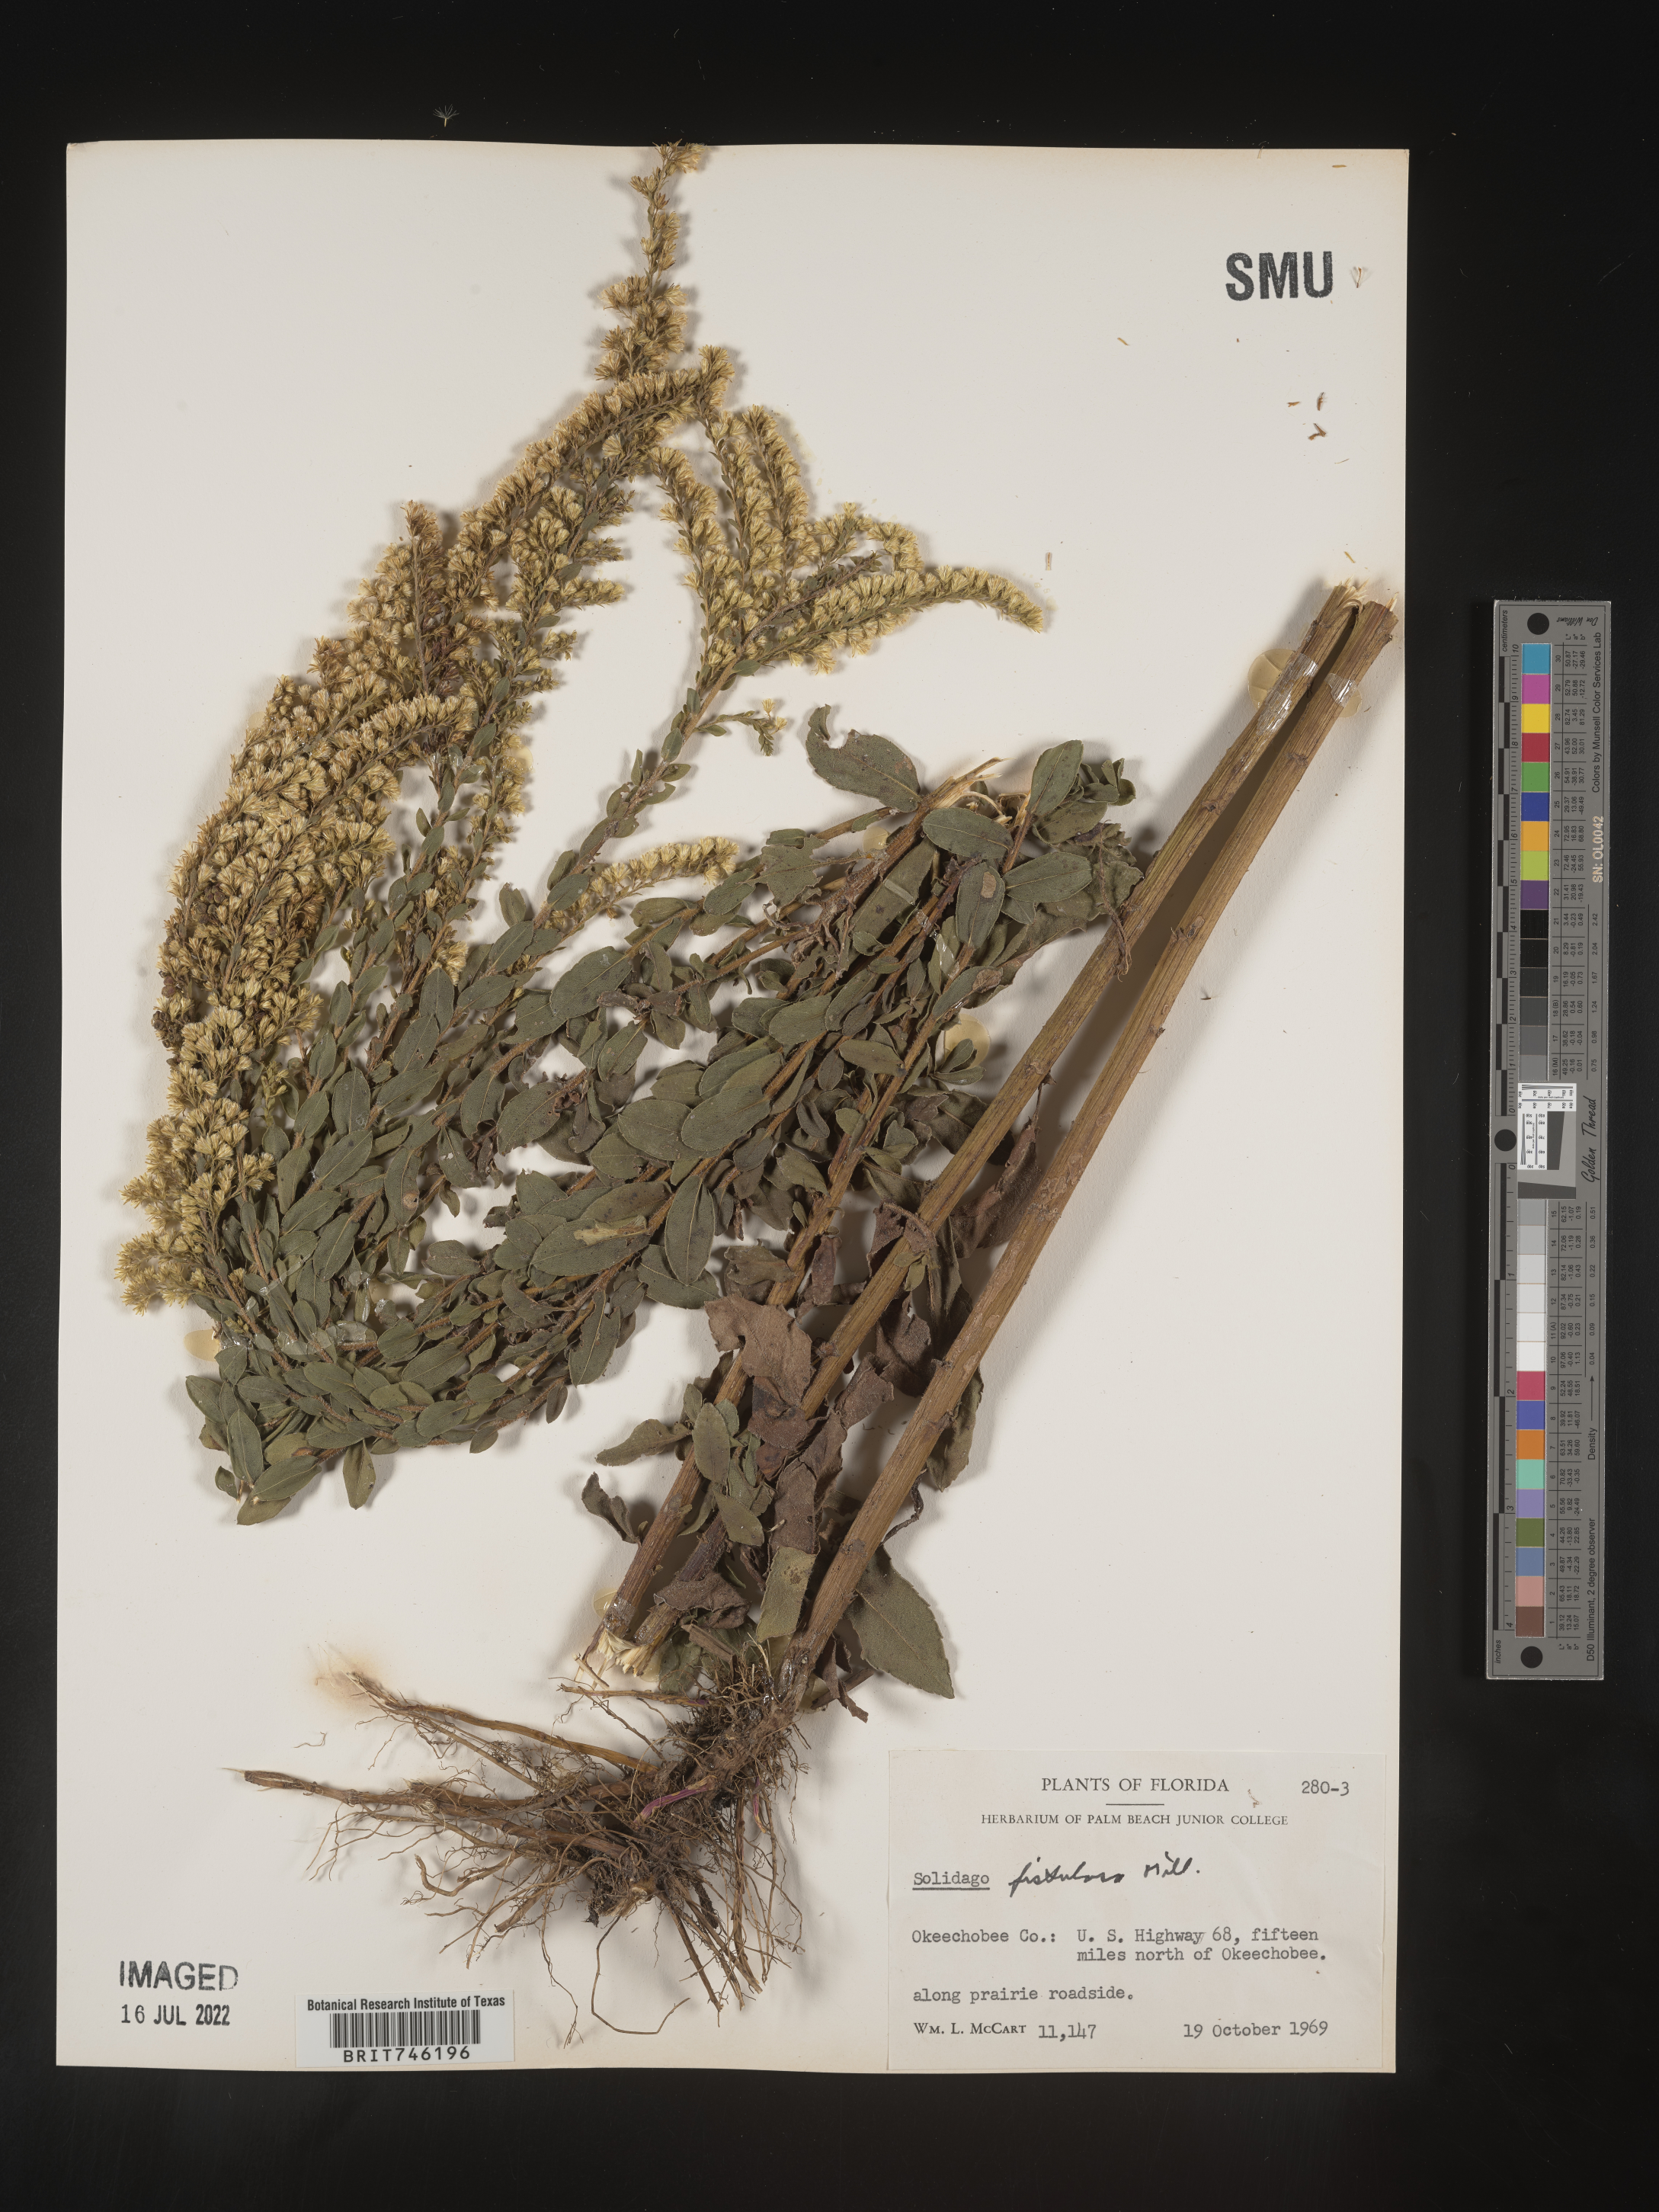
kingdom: Plantae
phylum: Tracheophyta
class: Magnoliopsida
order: Asterales
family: Asteraceae
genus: Solidago
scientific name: Solidago fistulosa
